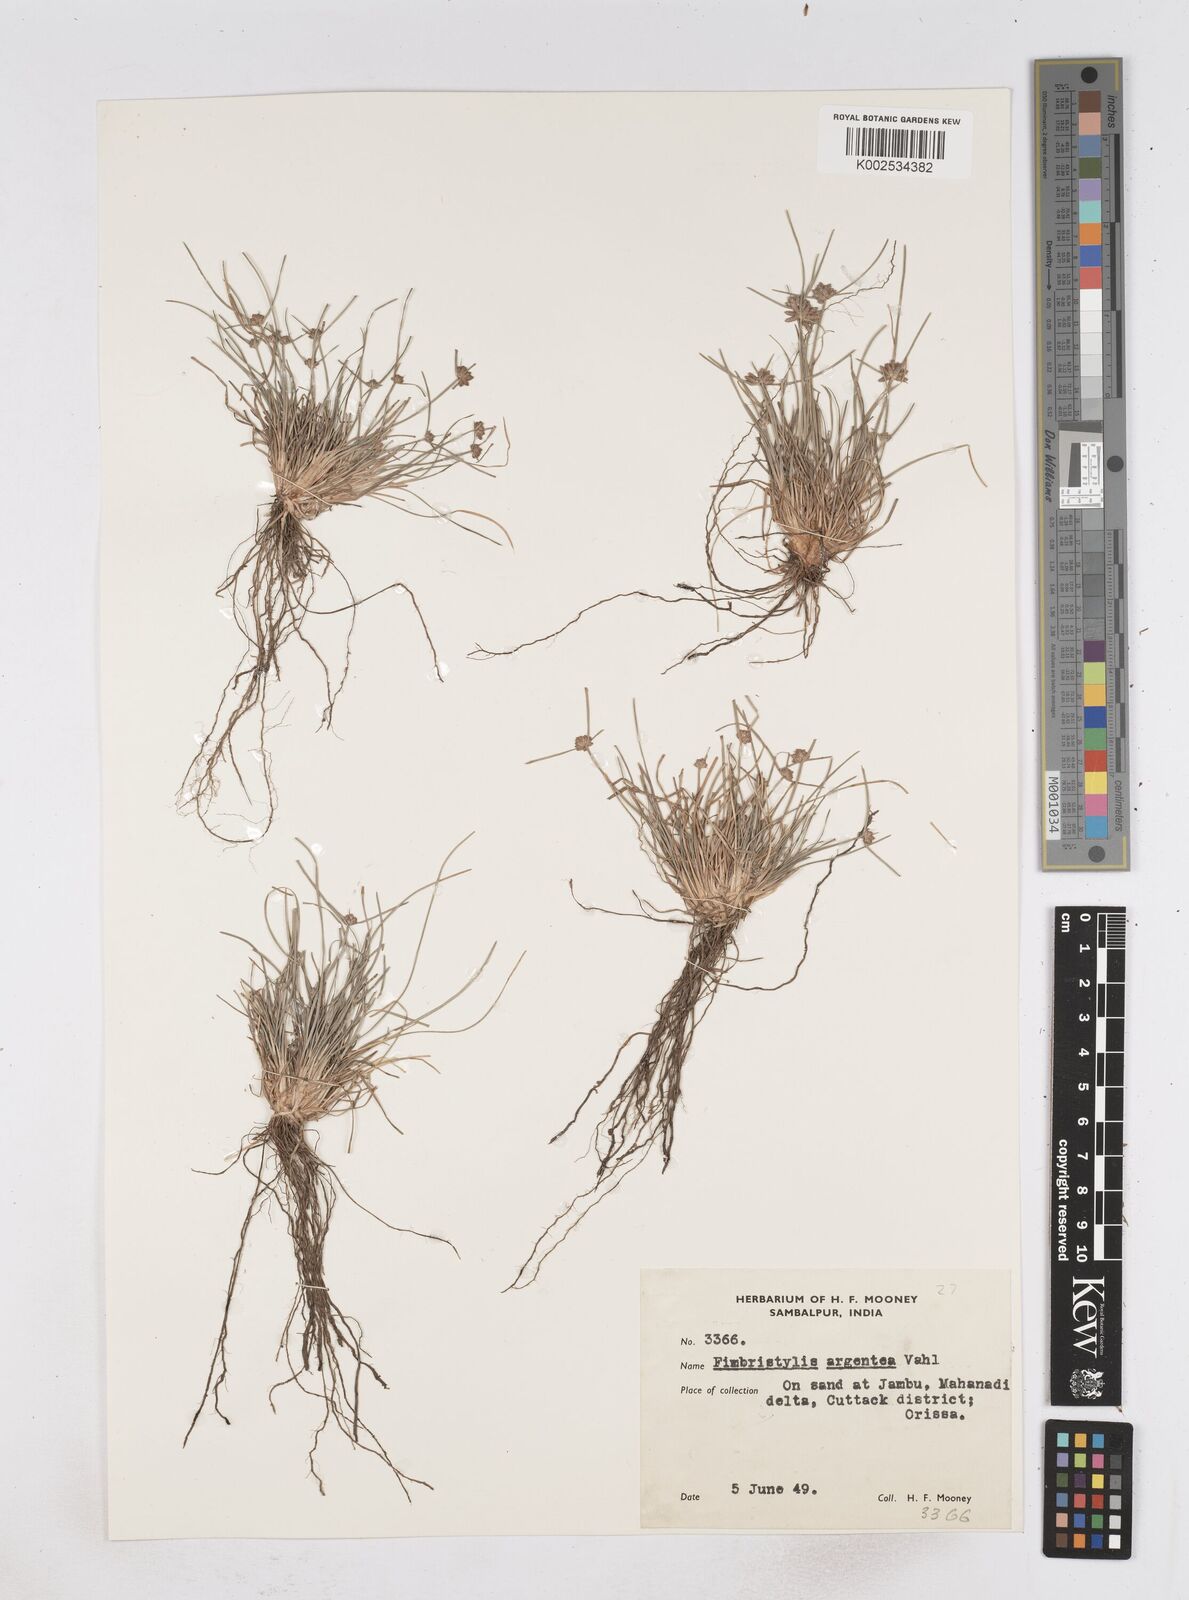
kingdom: Plantae
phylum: Tracheophyta
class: Liliopsida
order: Poales
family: Cyperaceae
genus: Fimbristylis
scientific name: Fimbristylis argentea
